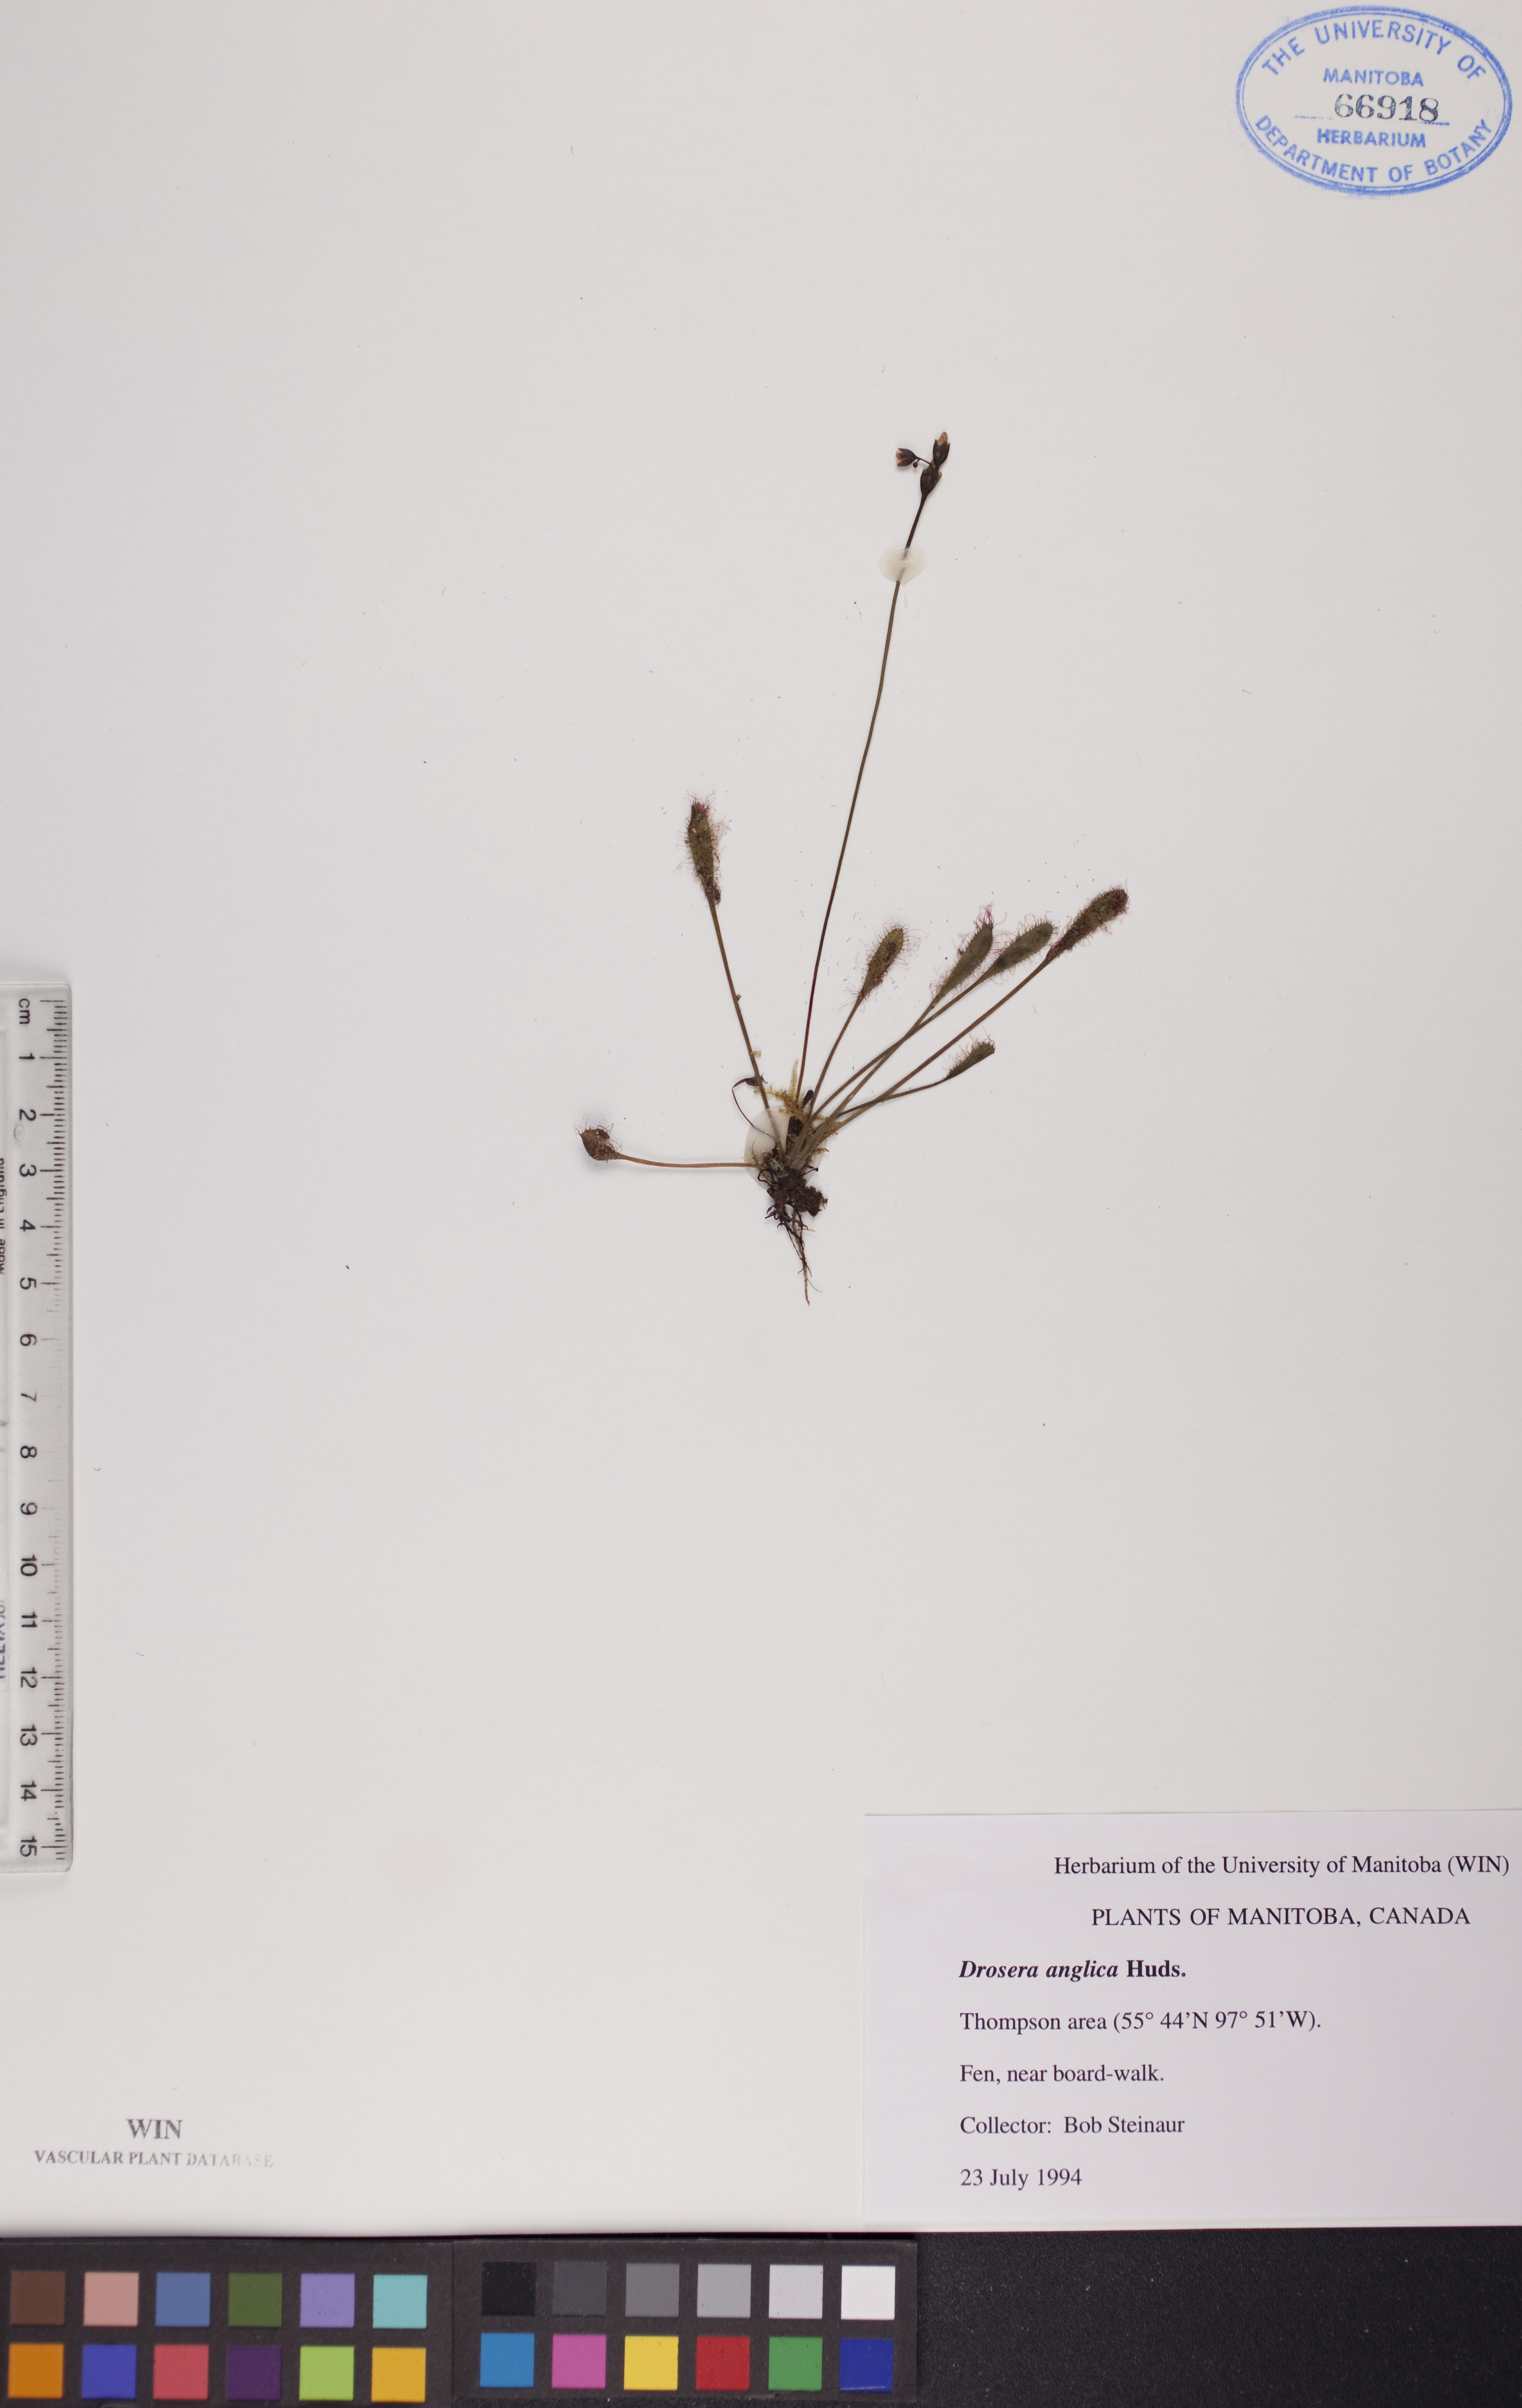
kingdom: Plantae
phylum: Tracheophyta
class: Magnoliopsida
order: Caryophyllales
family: Droseraceae
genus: Drosera
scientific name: Drosera anglica
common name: Great sundew
